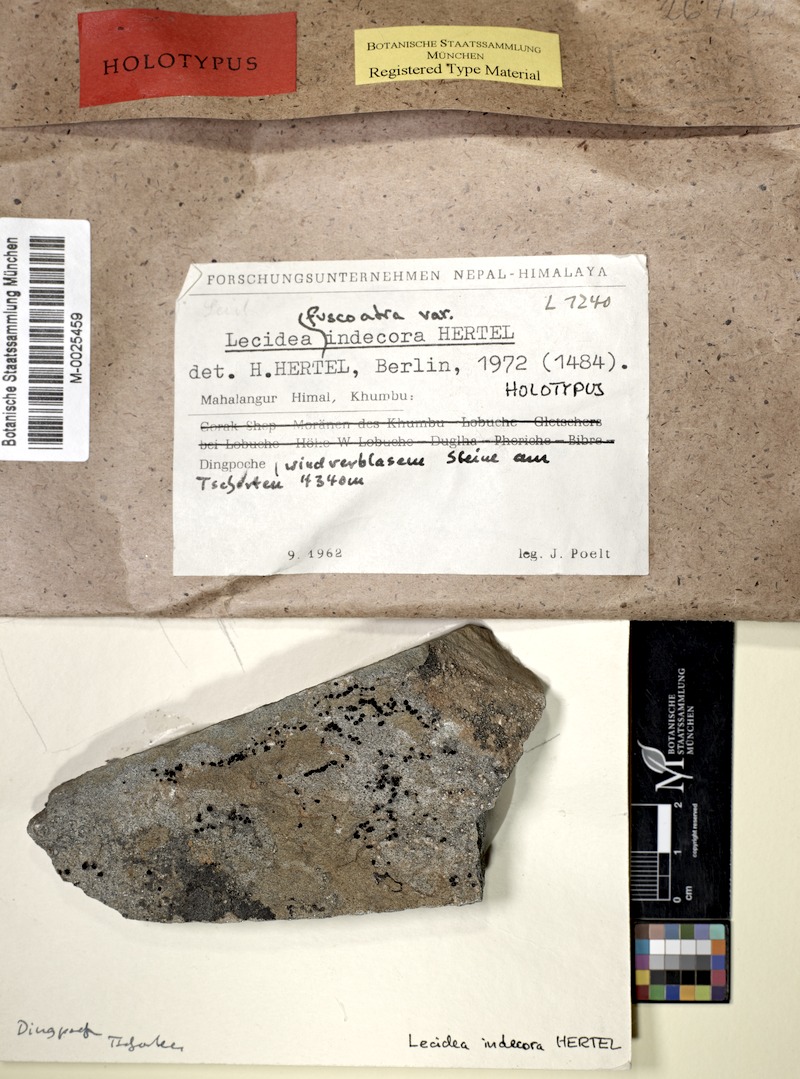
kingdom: Fungi
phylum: Ascomycota
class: Lecanoromycetes
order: Lecideales
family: Lecideaceae
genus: Lecidea
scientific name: Lecidea fuscoatra
